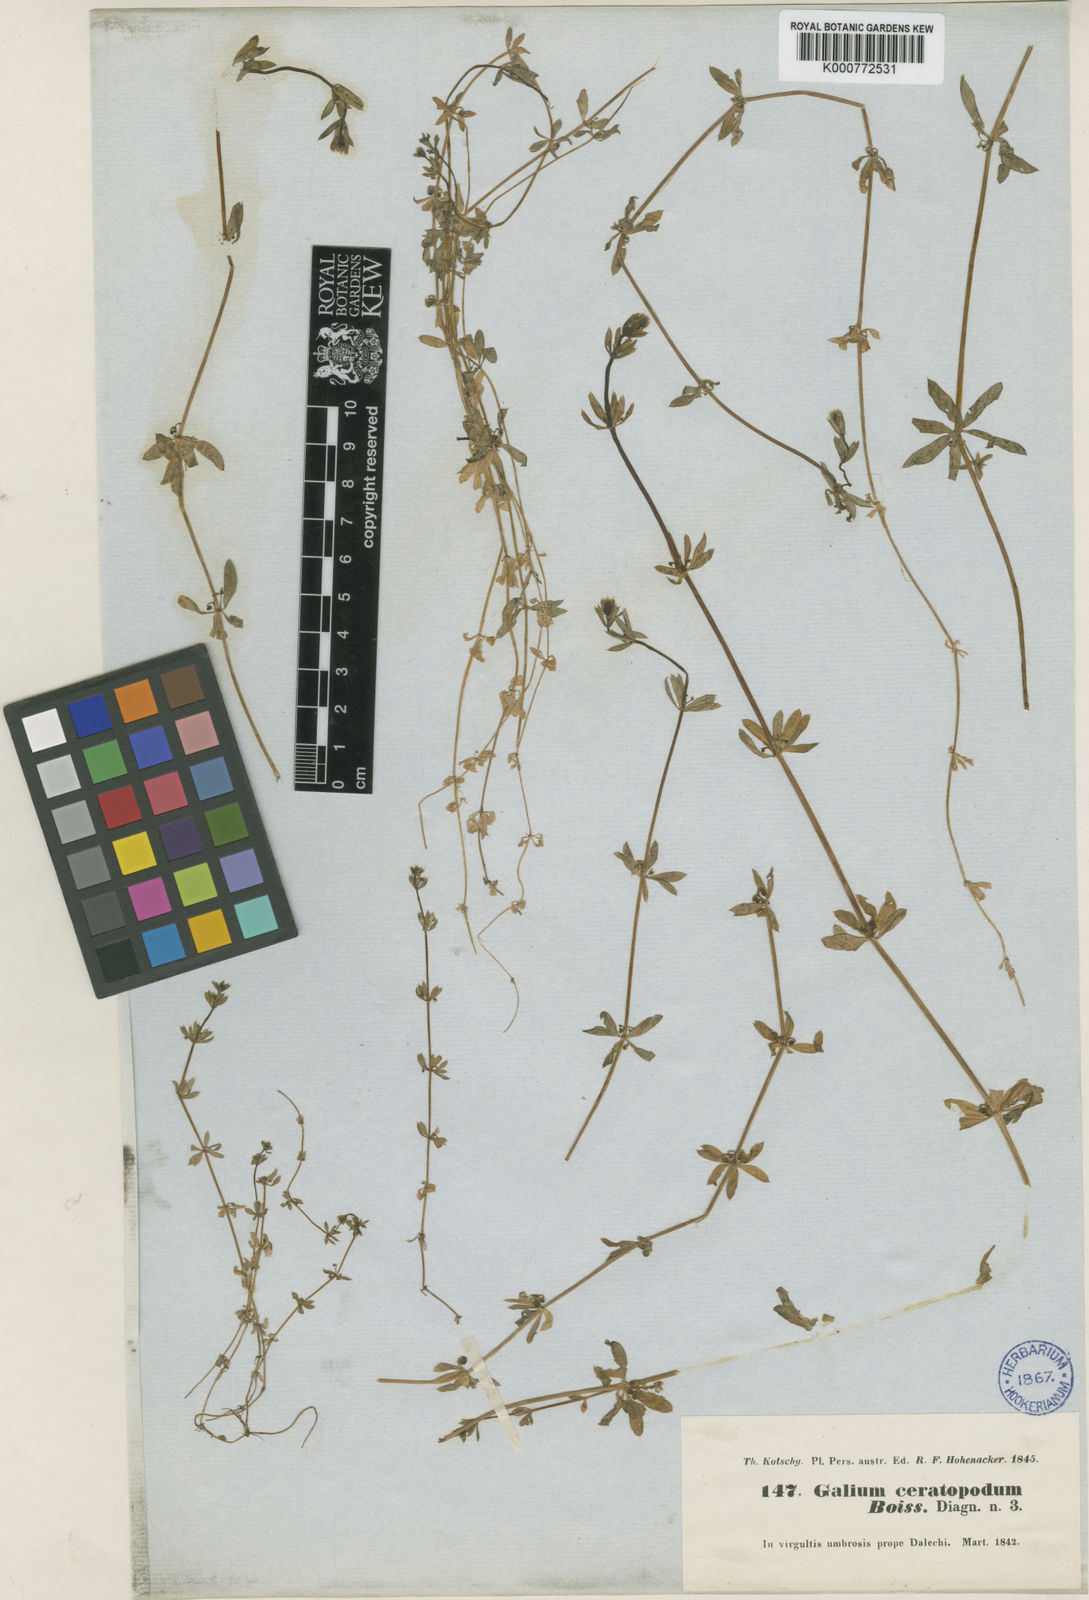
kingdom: Plantae
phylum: Tracheophyta
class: Magnoliopsida
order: Gentianales
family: Rubiaceae
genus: Galium
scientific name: Galium ceratopodum
